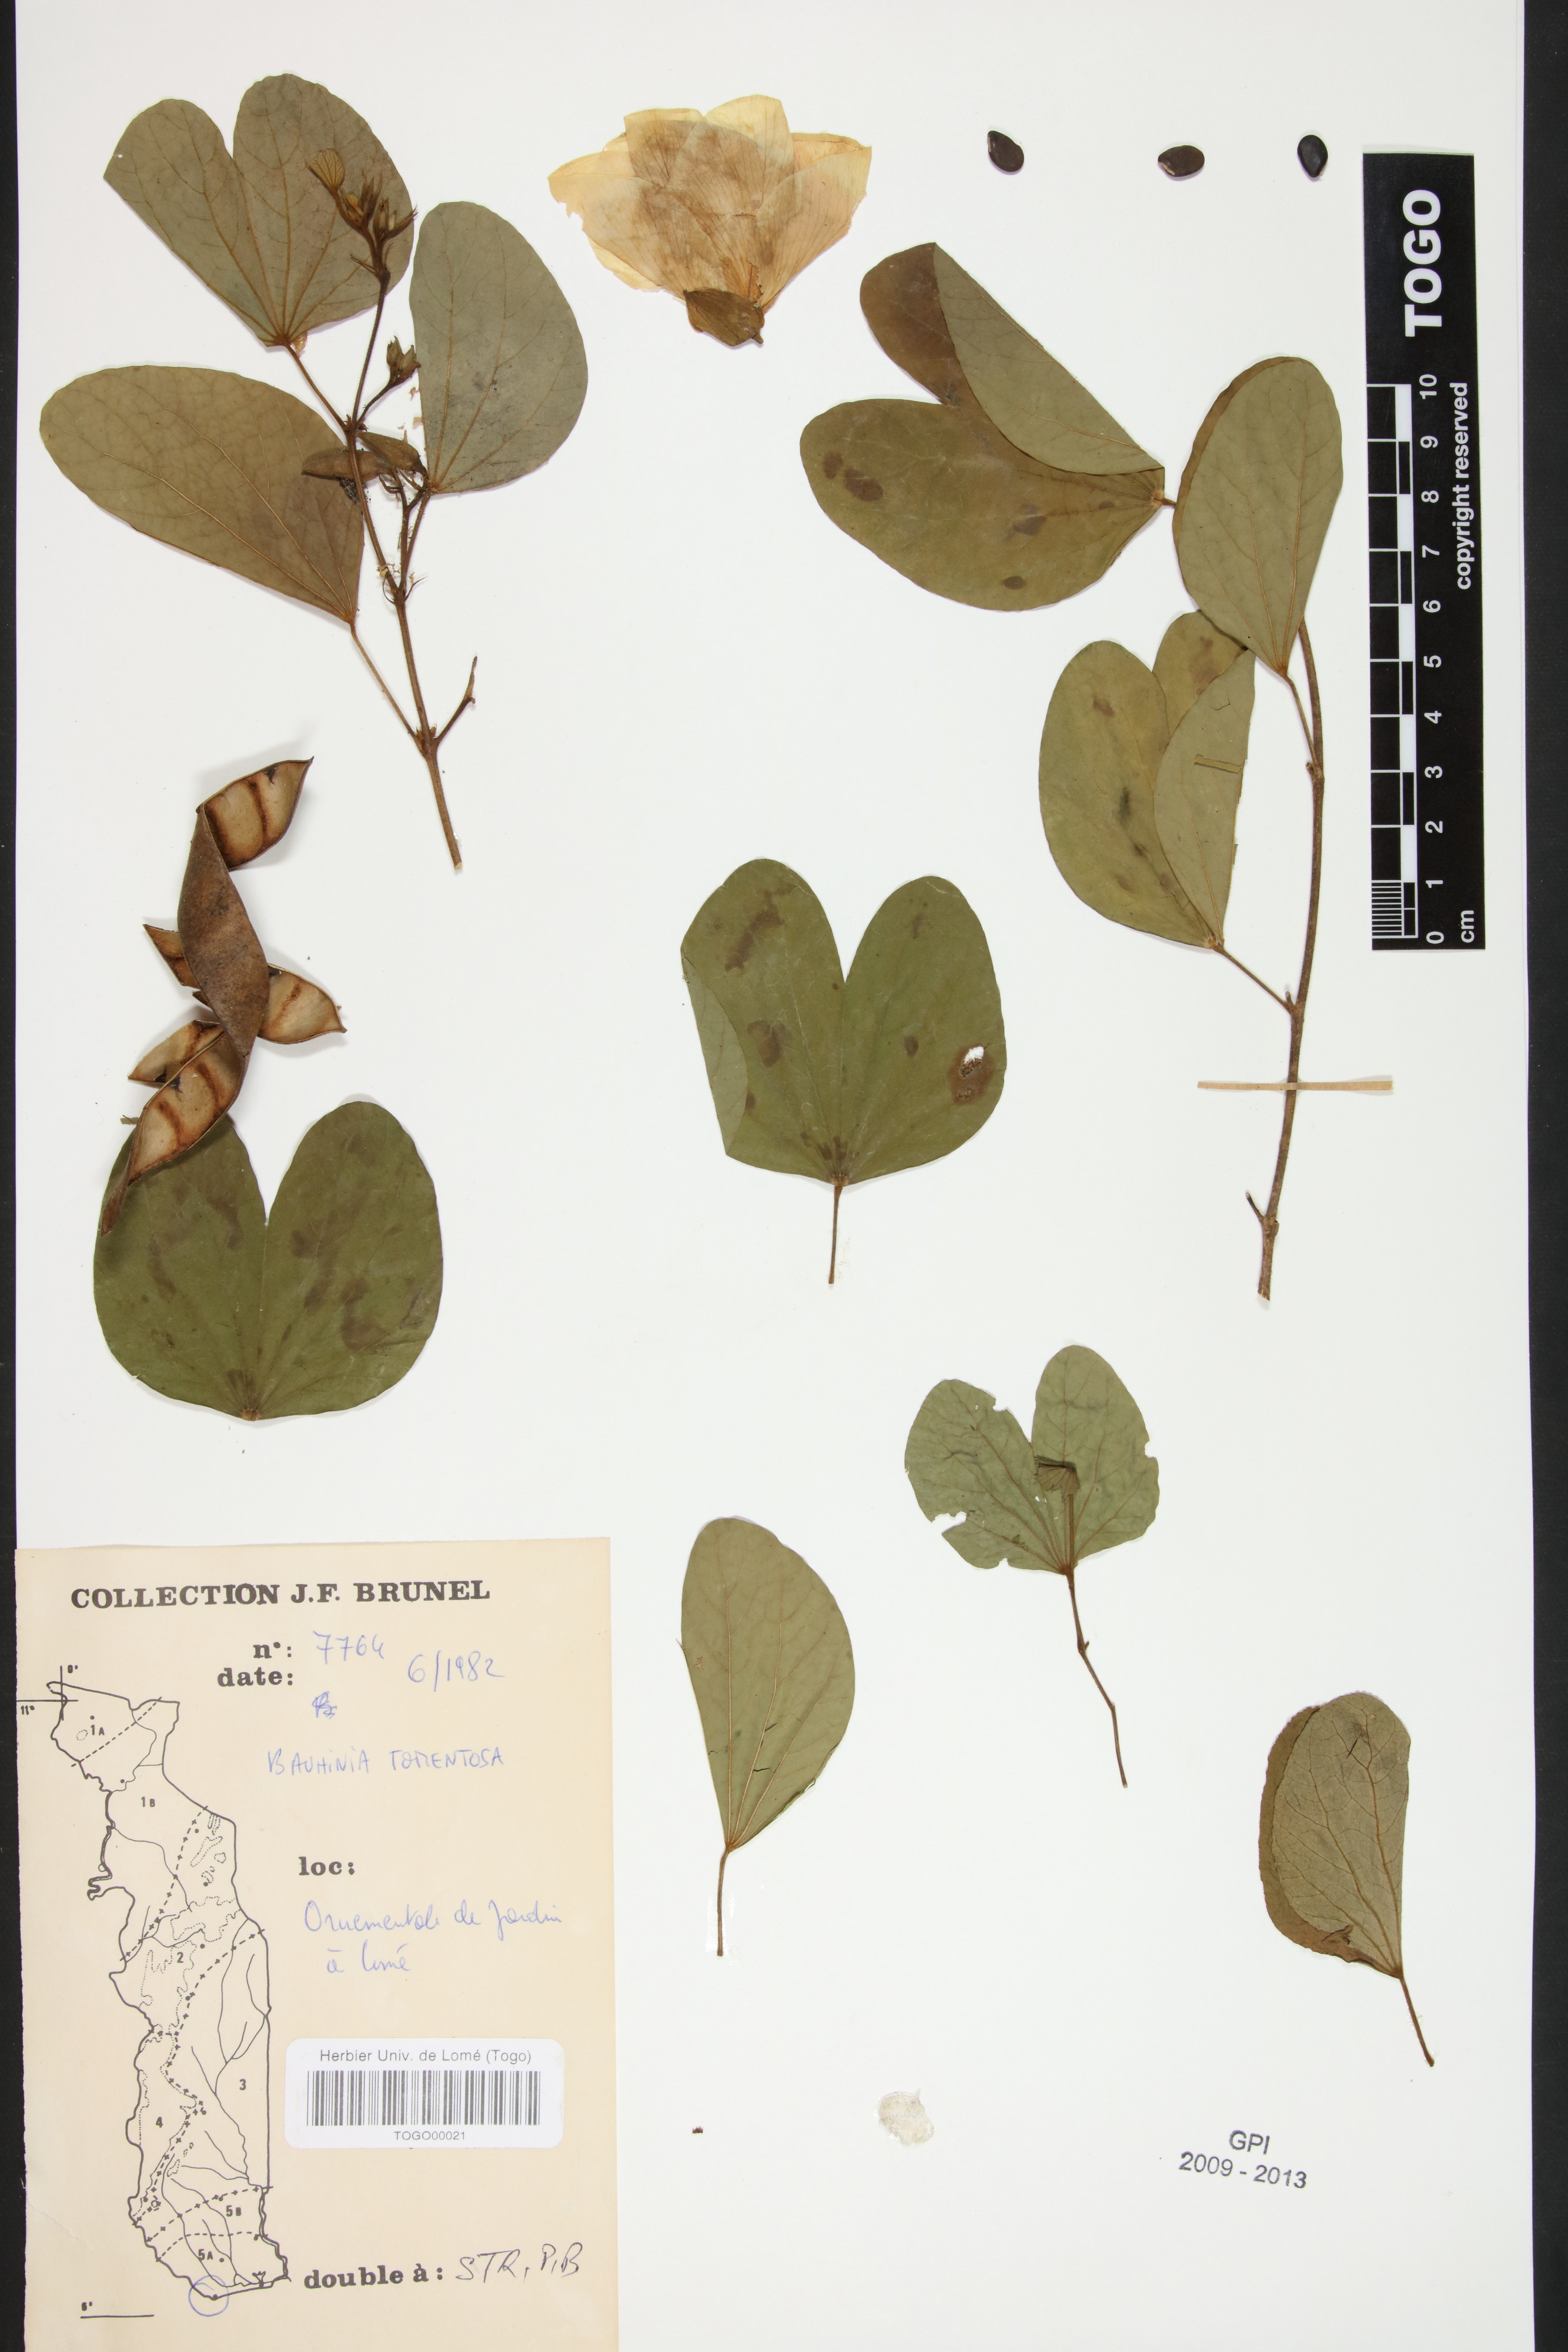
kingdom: Plantae
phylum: Tracheophyta
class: Magnoliopsida
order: Fabales
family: Fabaceae
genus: Bauhinia
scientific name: Bauhinia tomentosa
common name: Bell bauhinia
